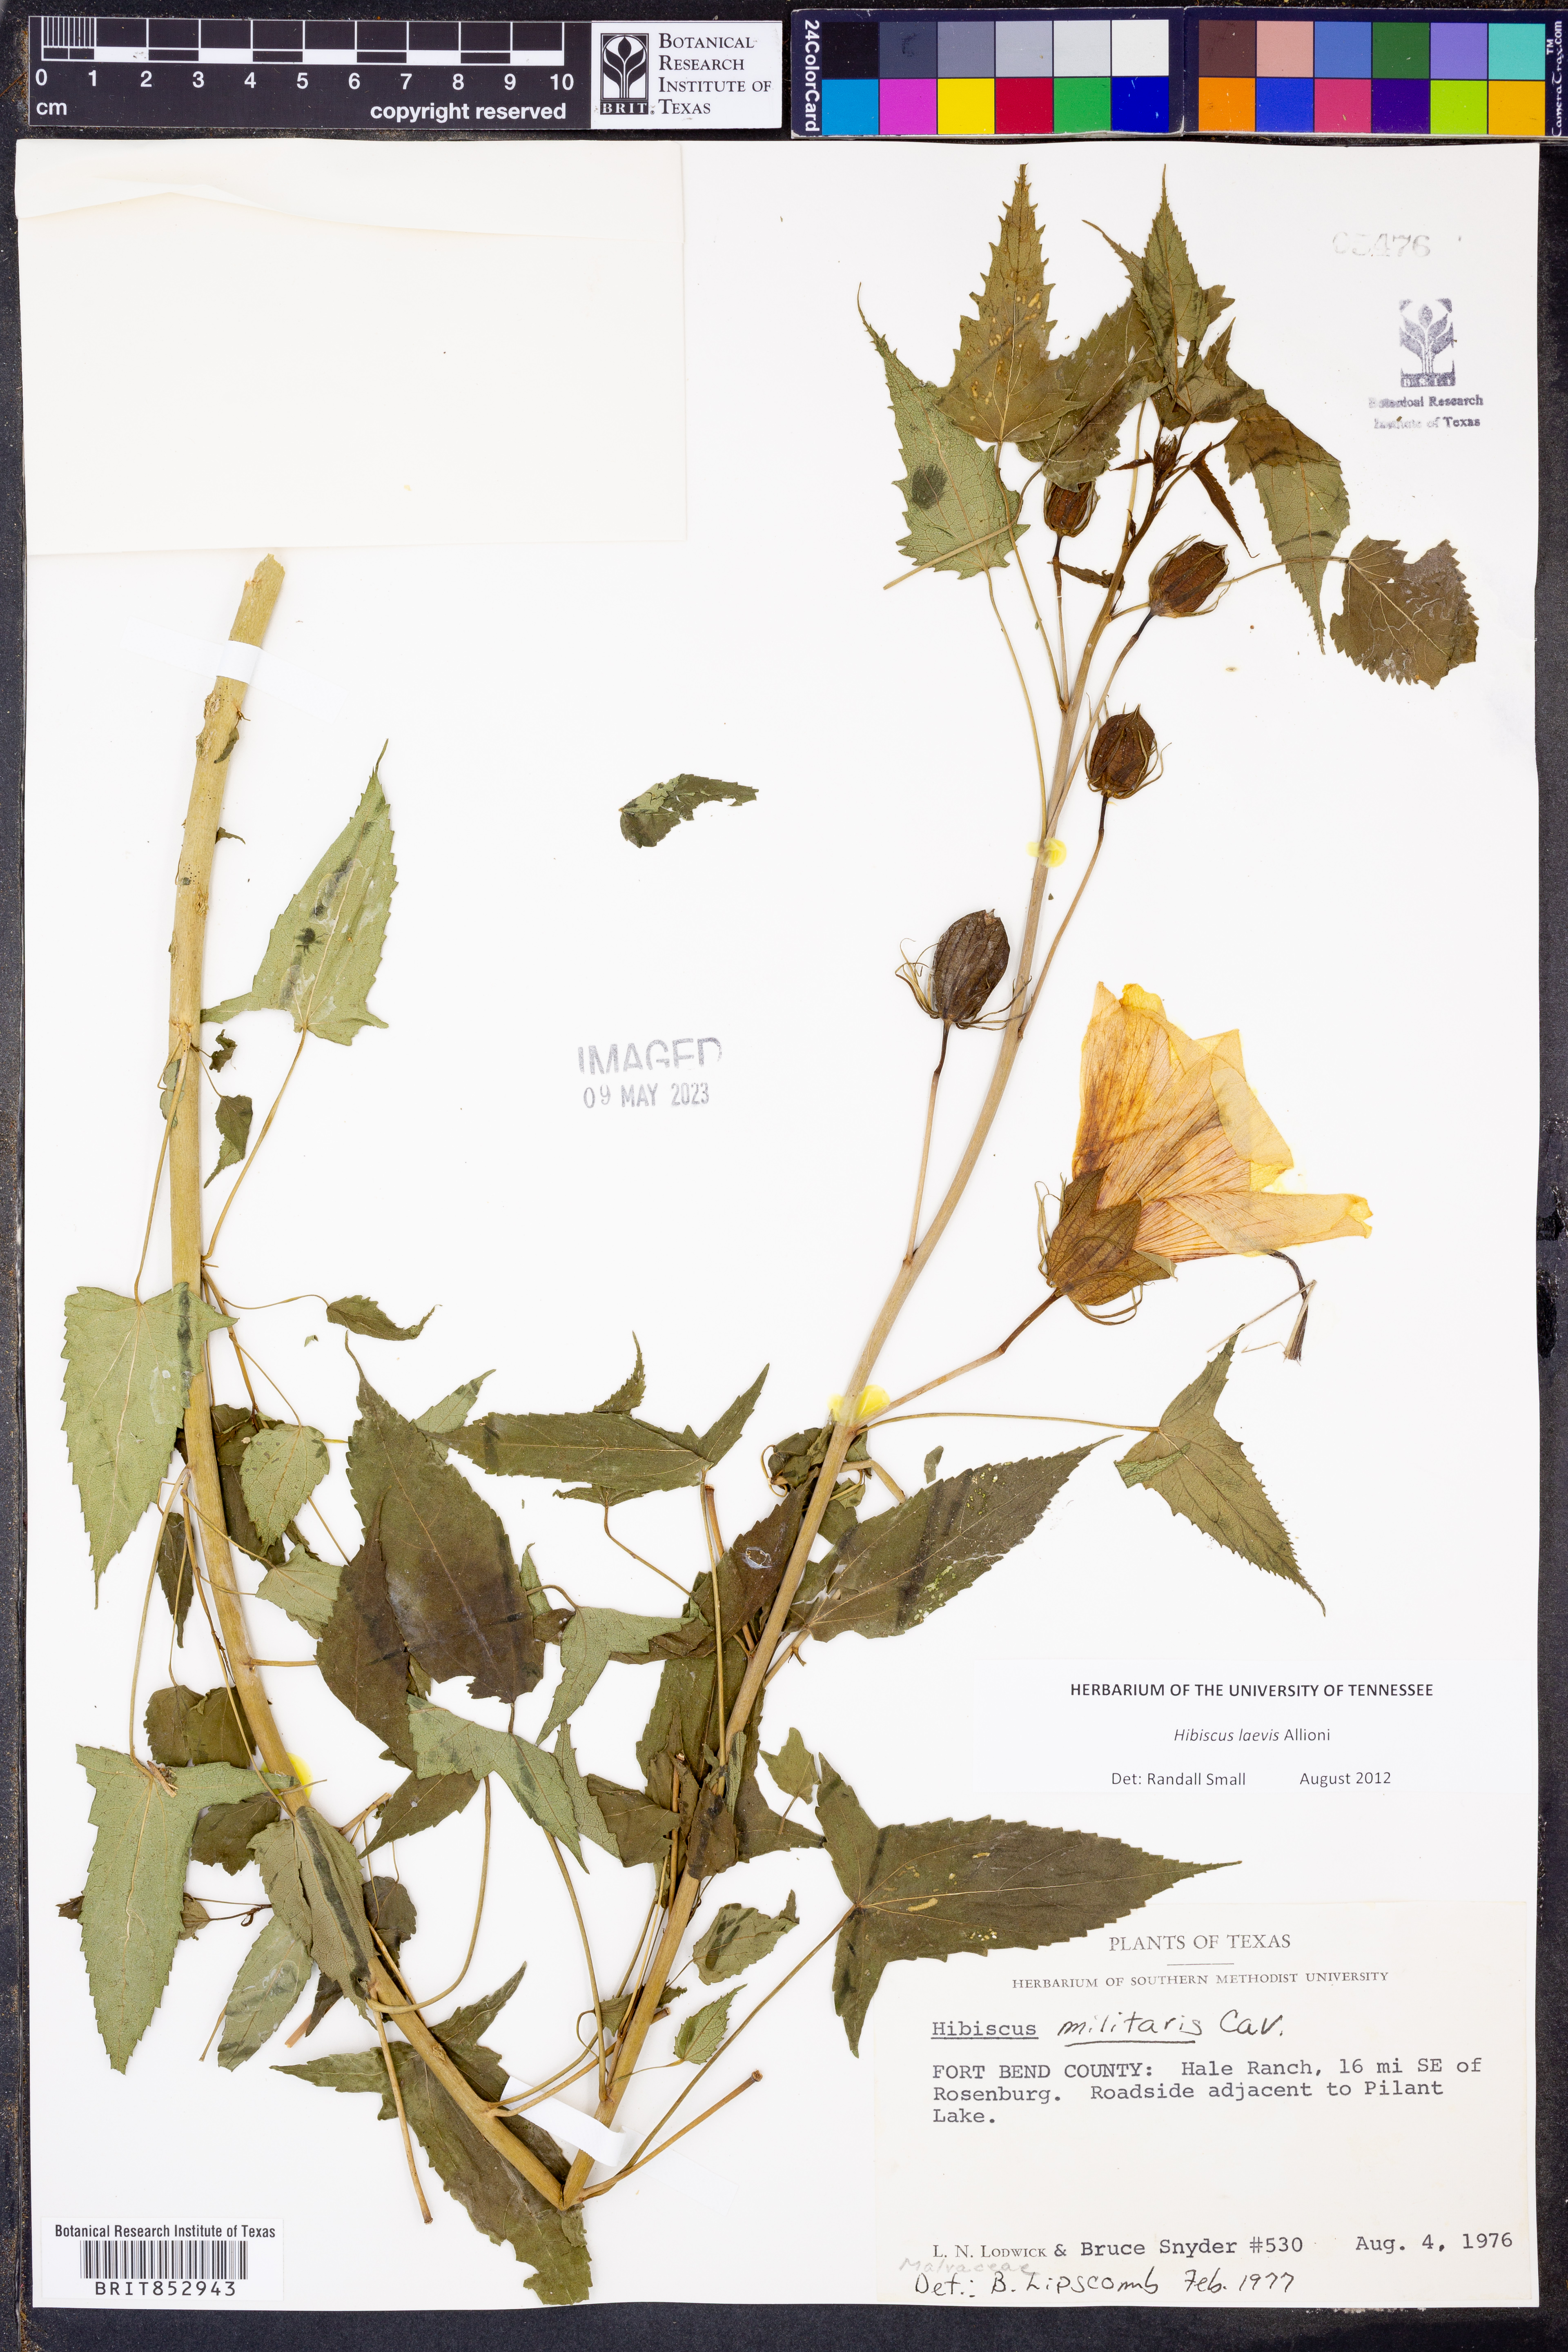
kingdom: Plantae
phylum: Tracheophyta
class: Magnoliopsida
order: Malvales
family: Malvaceae
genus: Hibiscus
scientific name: Hibiscus laevis
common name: Scarlet rose-mallow
